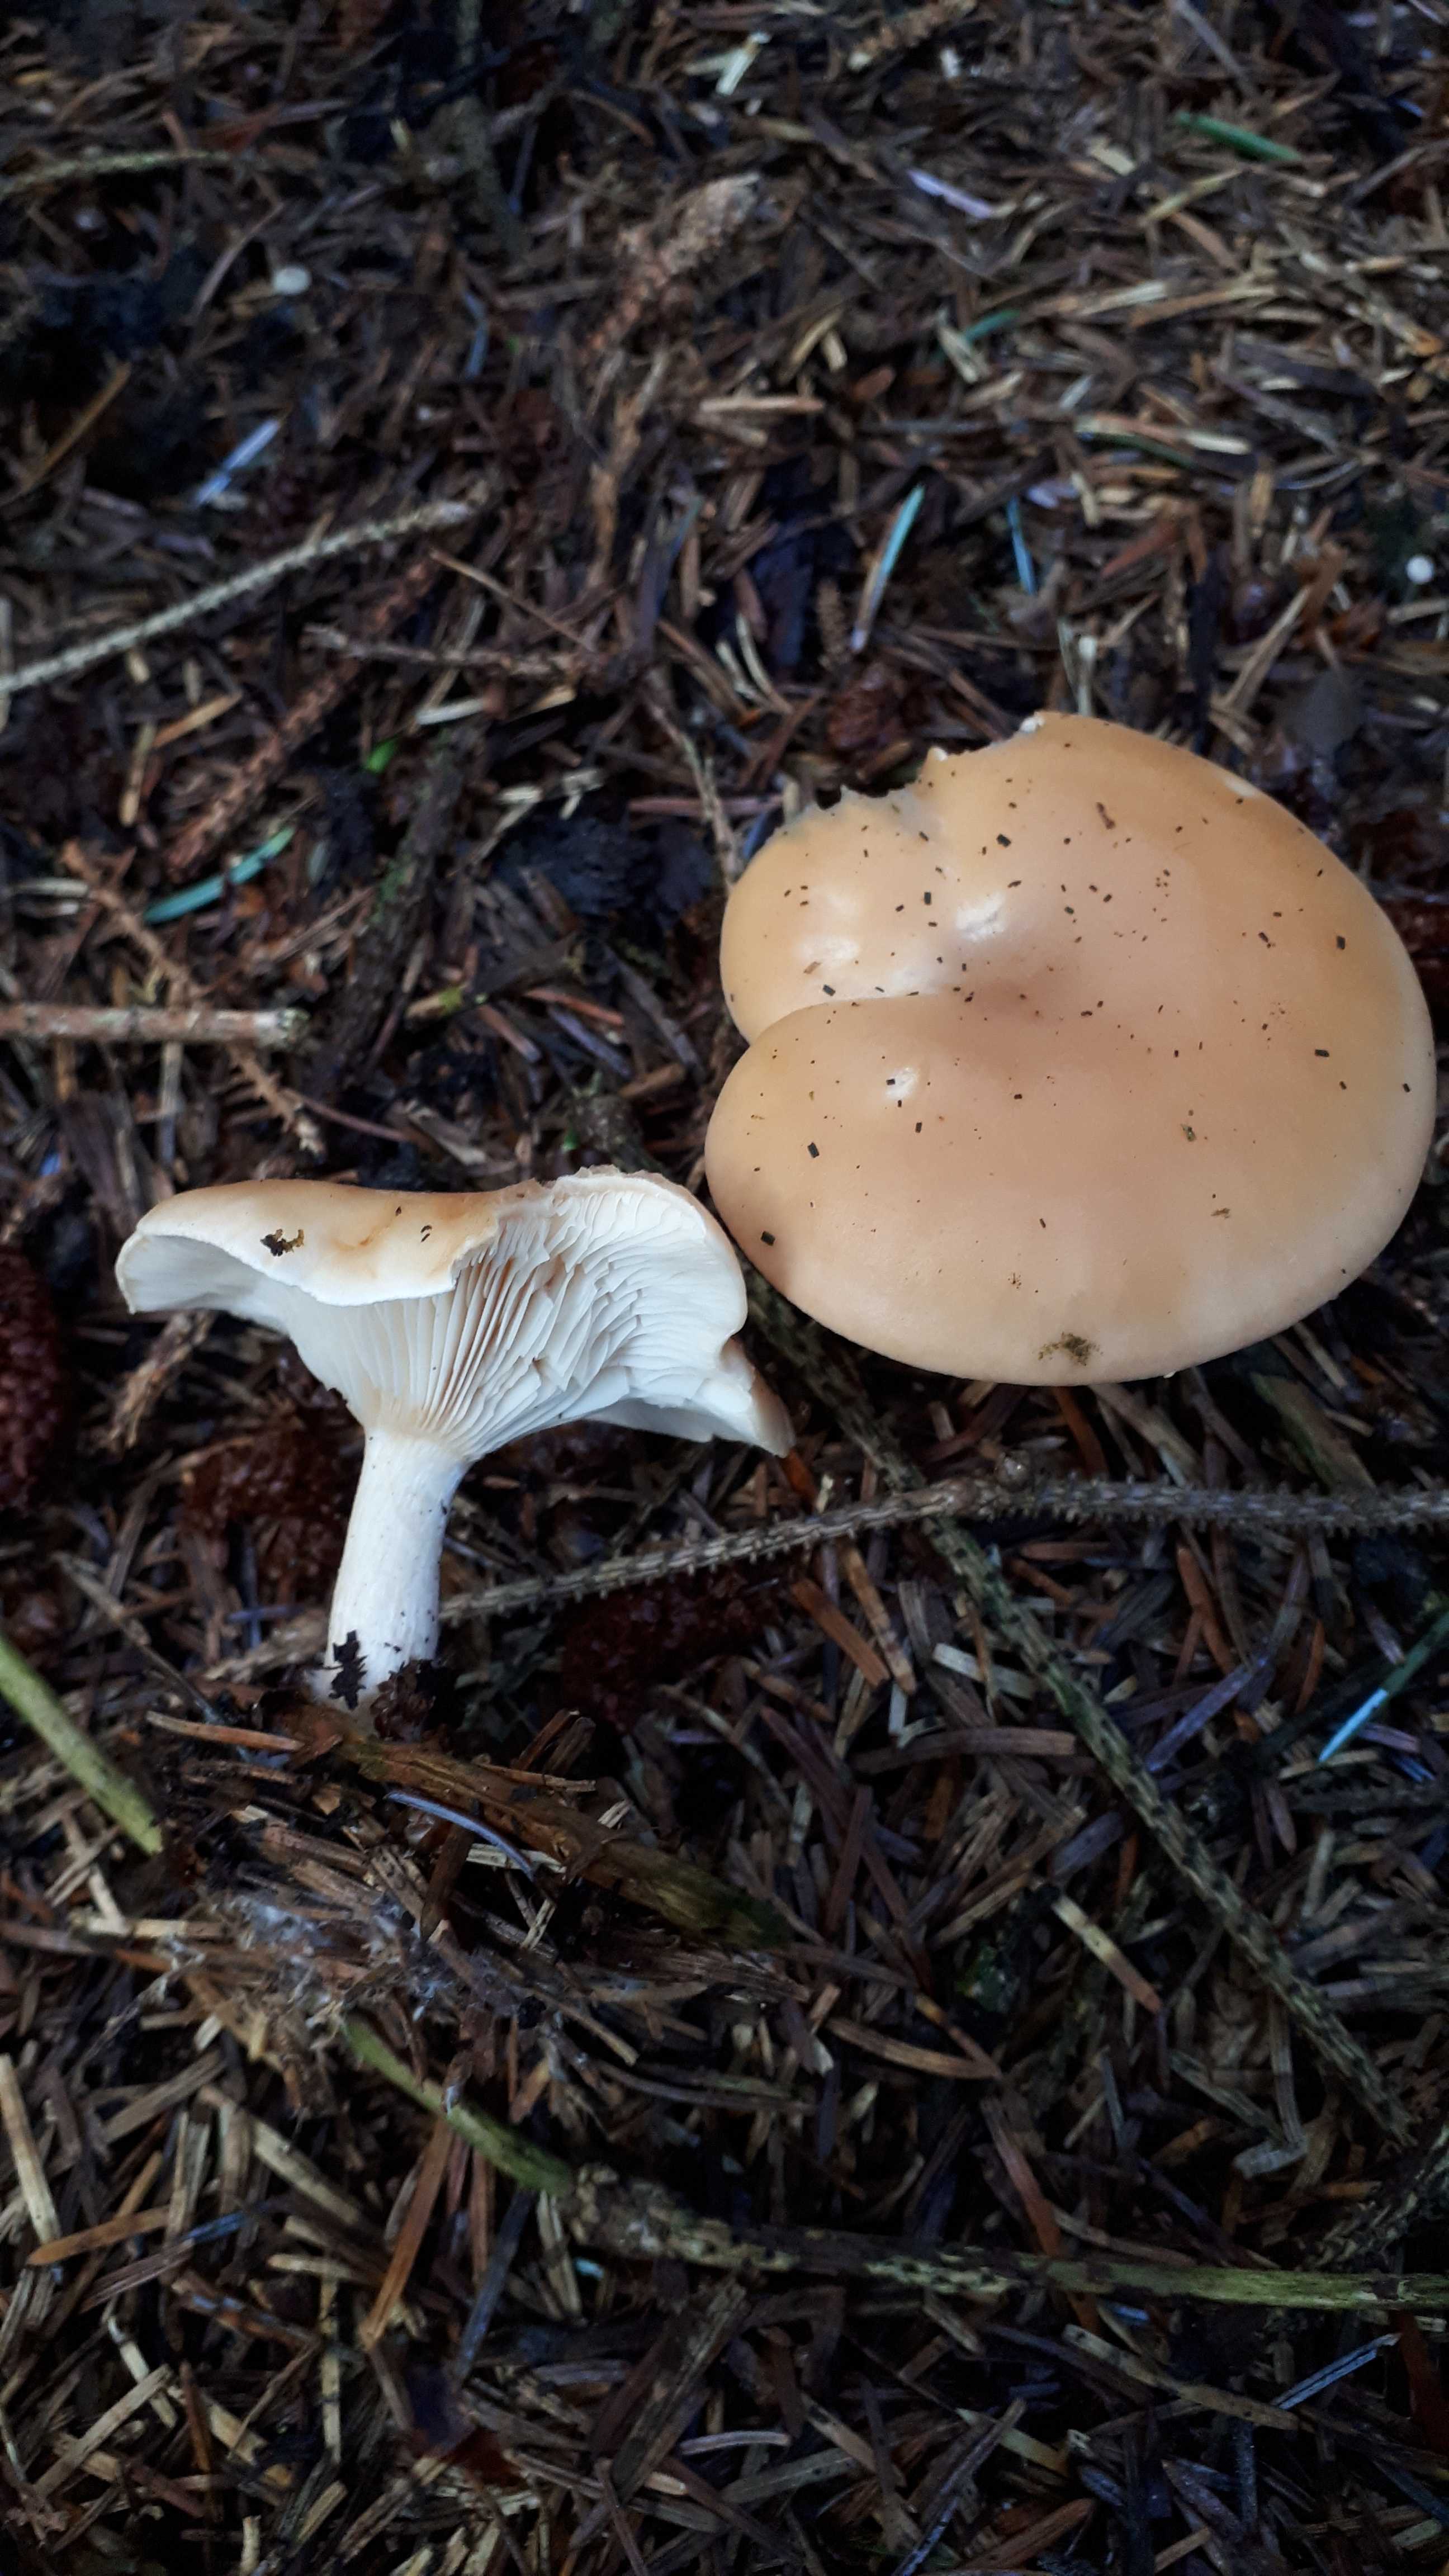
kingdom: Fungi
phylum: Basidiomycota
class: Agaricomycetes
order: Agaricales
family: Tricholomataceae
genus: Paralepista
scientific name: Paralepista flaccida
